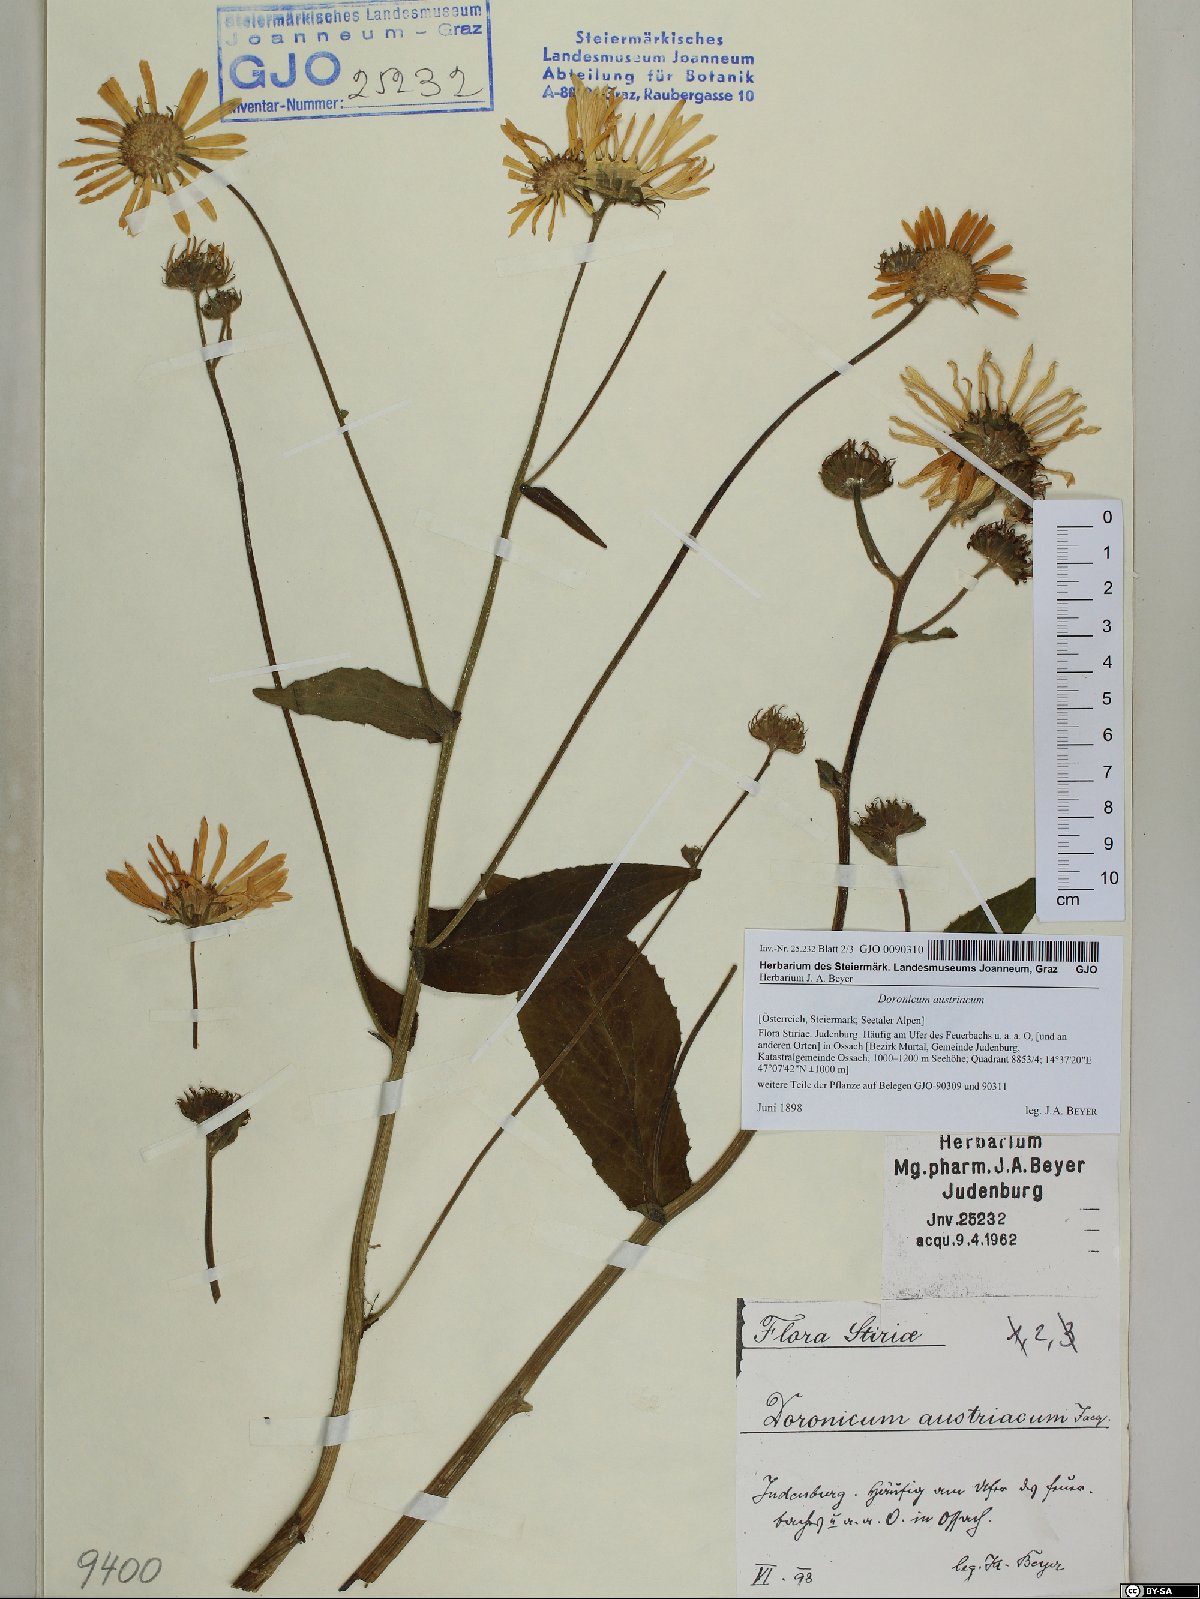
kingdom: Plantae
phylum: Tracheophyta
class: Magnoliopsida
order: Asterales
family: Asteraceae
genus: Doronicum
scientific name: Doronicum austriacum
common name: Austrian leopard's-bane
